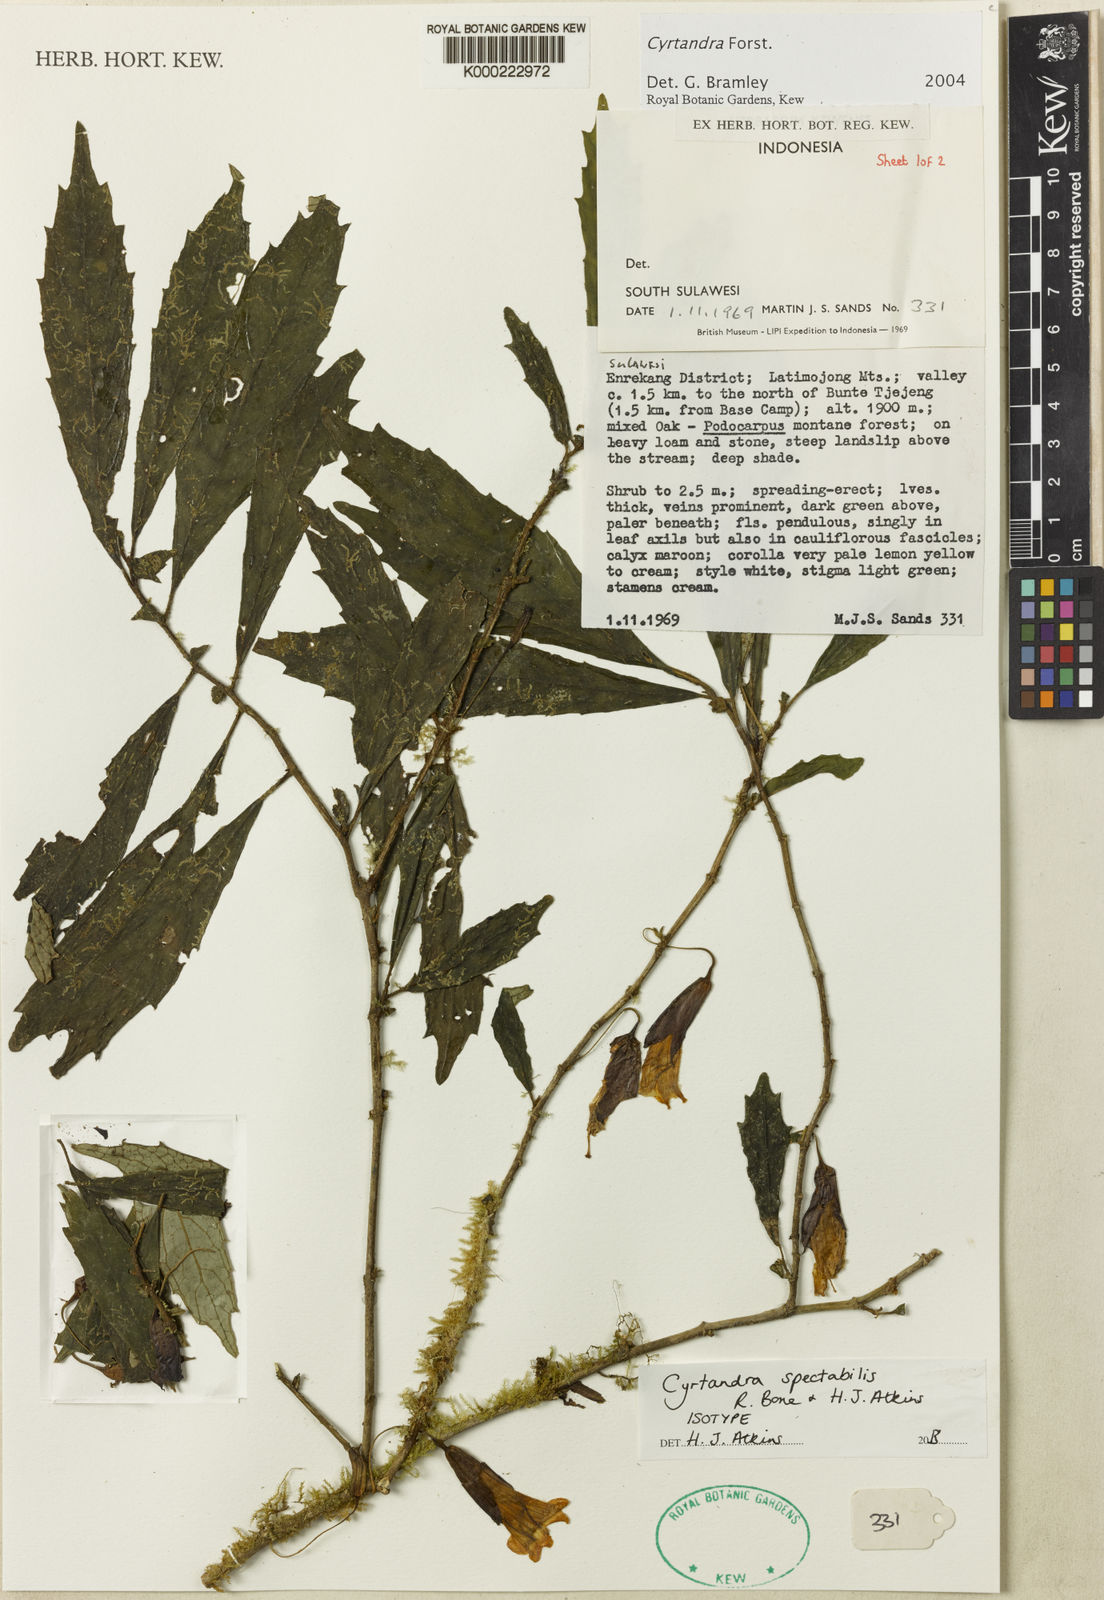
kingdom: Plantae
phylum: Tracheophyta
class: Magnoliopsida
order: Lamiales
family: Gesneriaceae
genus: Cyrtandra
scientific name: Cyrtandra spectabilis
